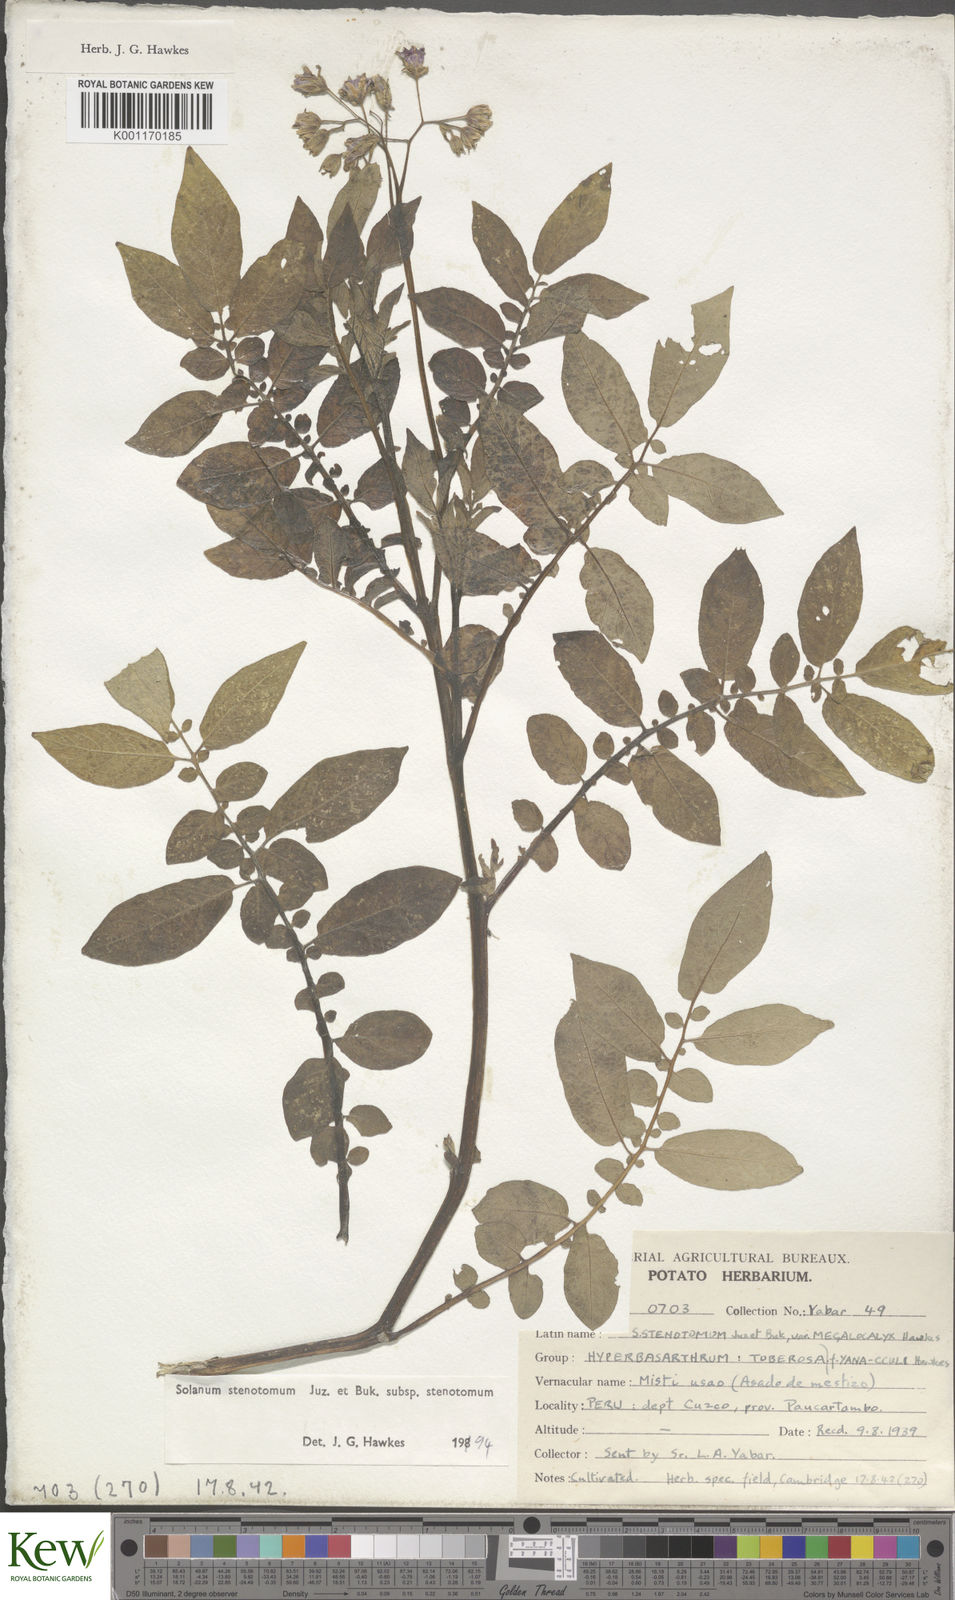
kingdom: Plantae
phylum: Tracheophyta
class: Magnoliopsida
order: Solanales
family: Solanaceae
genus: Solanum
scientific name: Solanum tuberosum
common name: Potato
